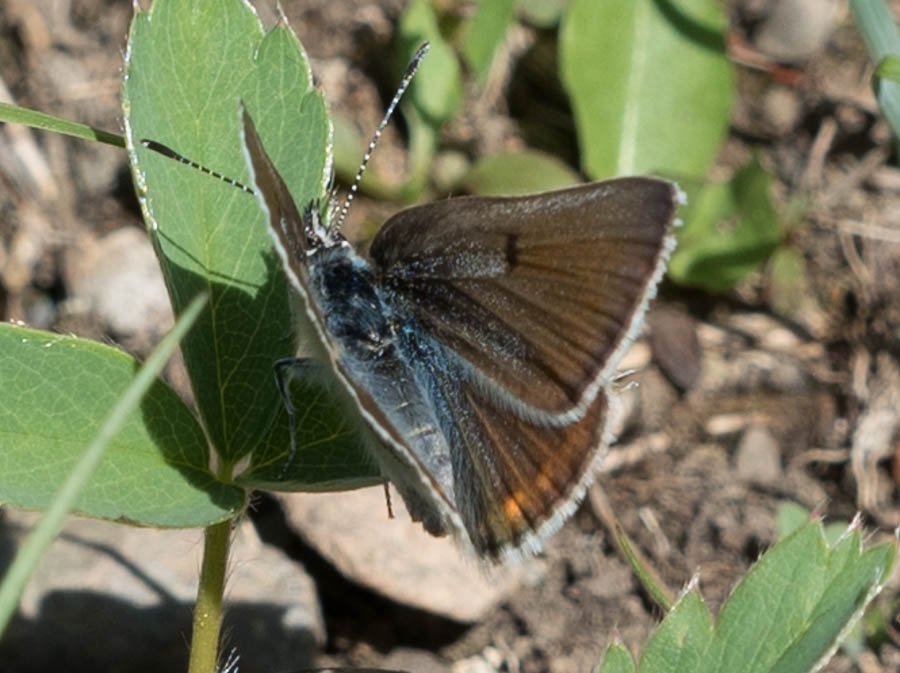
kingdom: Animalia
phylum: Arthropoda
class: Insecta
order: Lepidoptera
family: Lycaenidae
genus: Plebejus
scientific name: Plebejus saepiolus
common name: Greenish Blue
